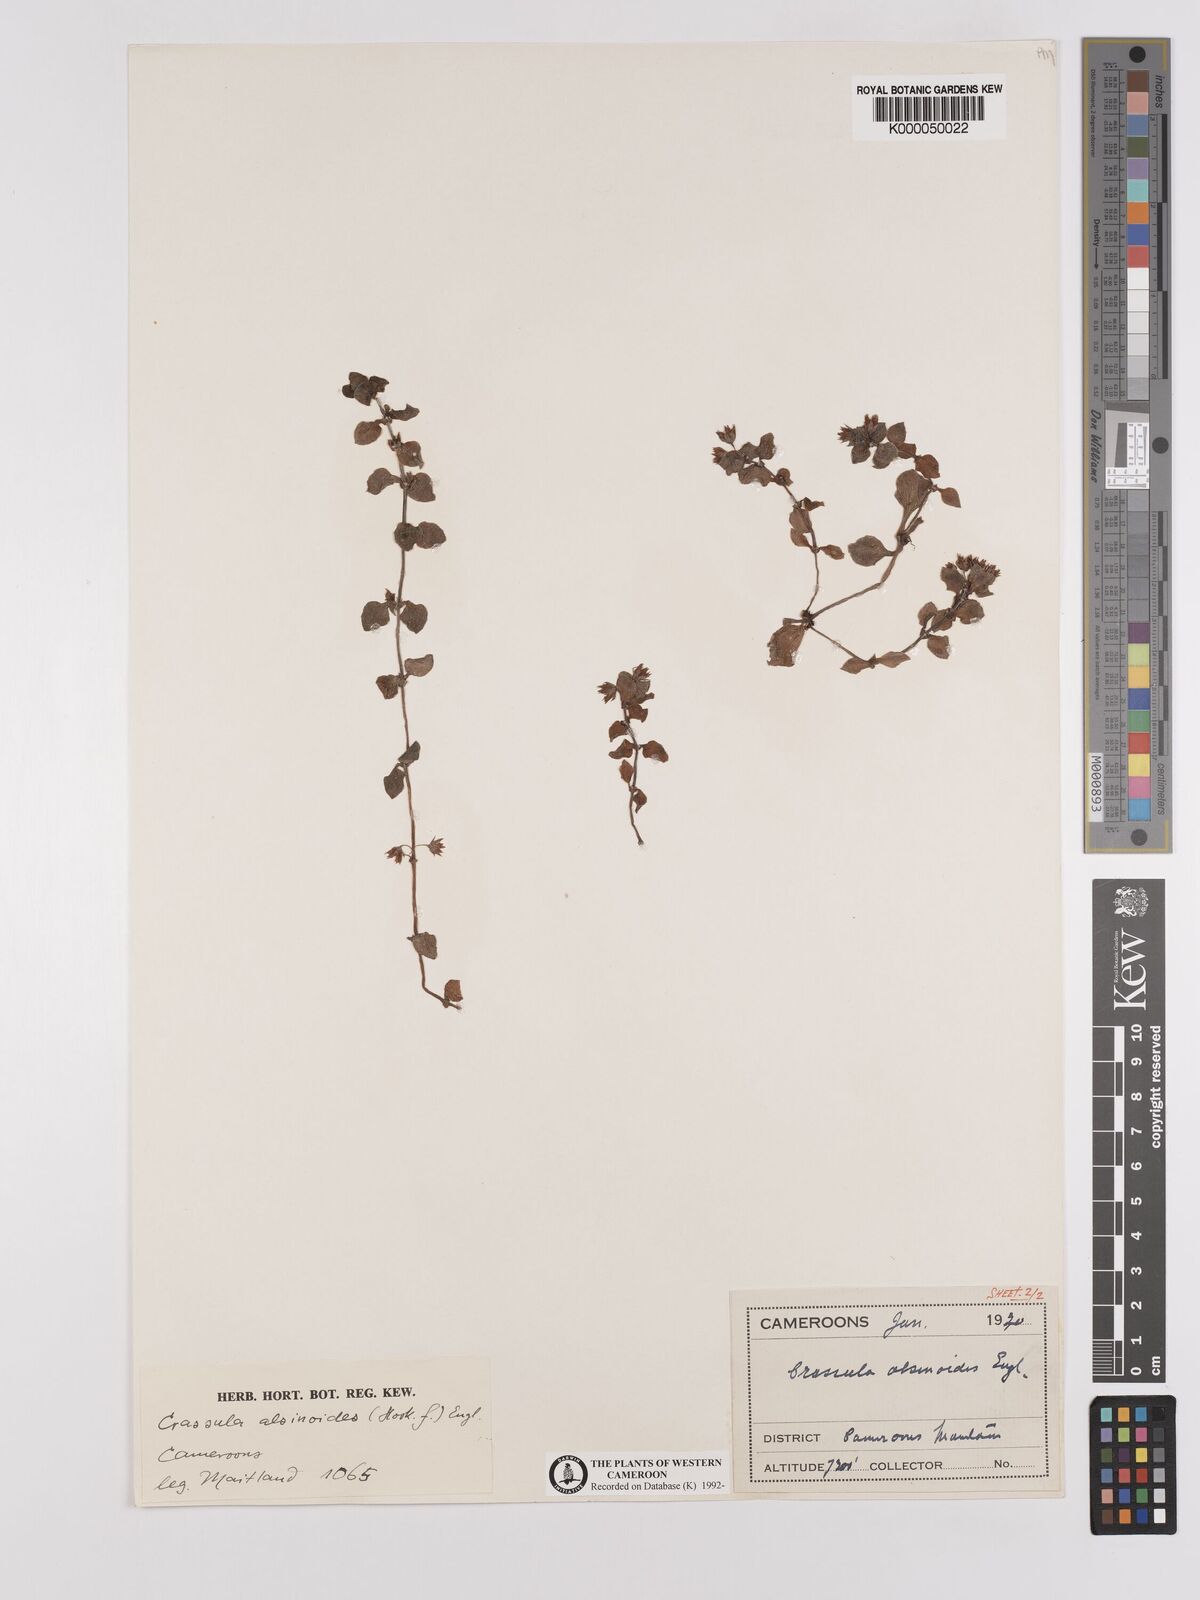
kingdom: Plantae
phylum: Tracheophyta
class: Magnoliopsida
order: Saxifragales
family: Crassulaceae
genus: Crassula
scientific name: Crassula alsinoides
